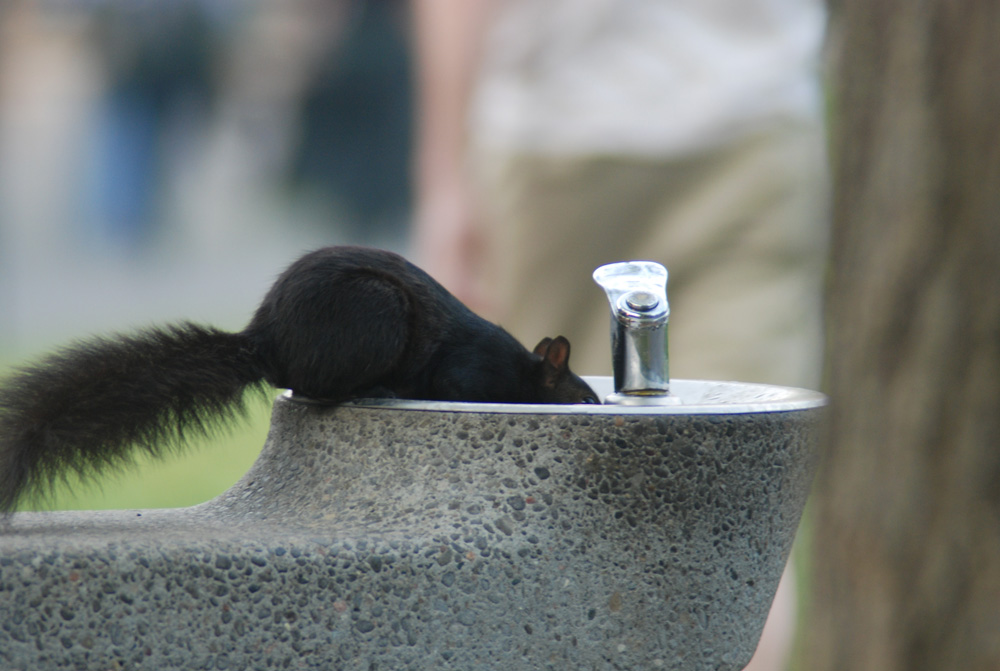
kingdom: Animalia
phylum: Chordata
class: Mammalia
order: Rodentia
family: Sciuridae
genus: Sciurus
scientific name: Sciurus carolinensis
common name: Eastern gray squirrel
